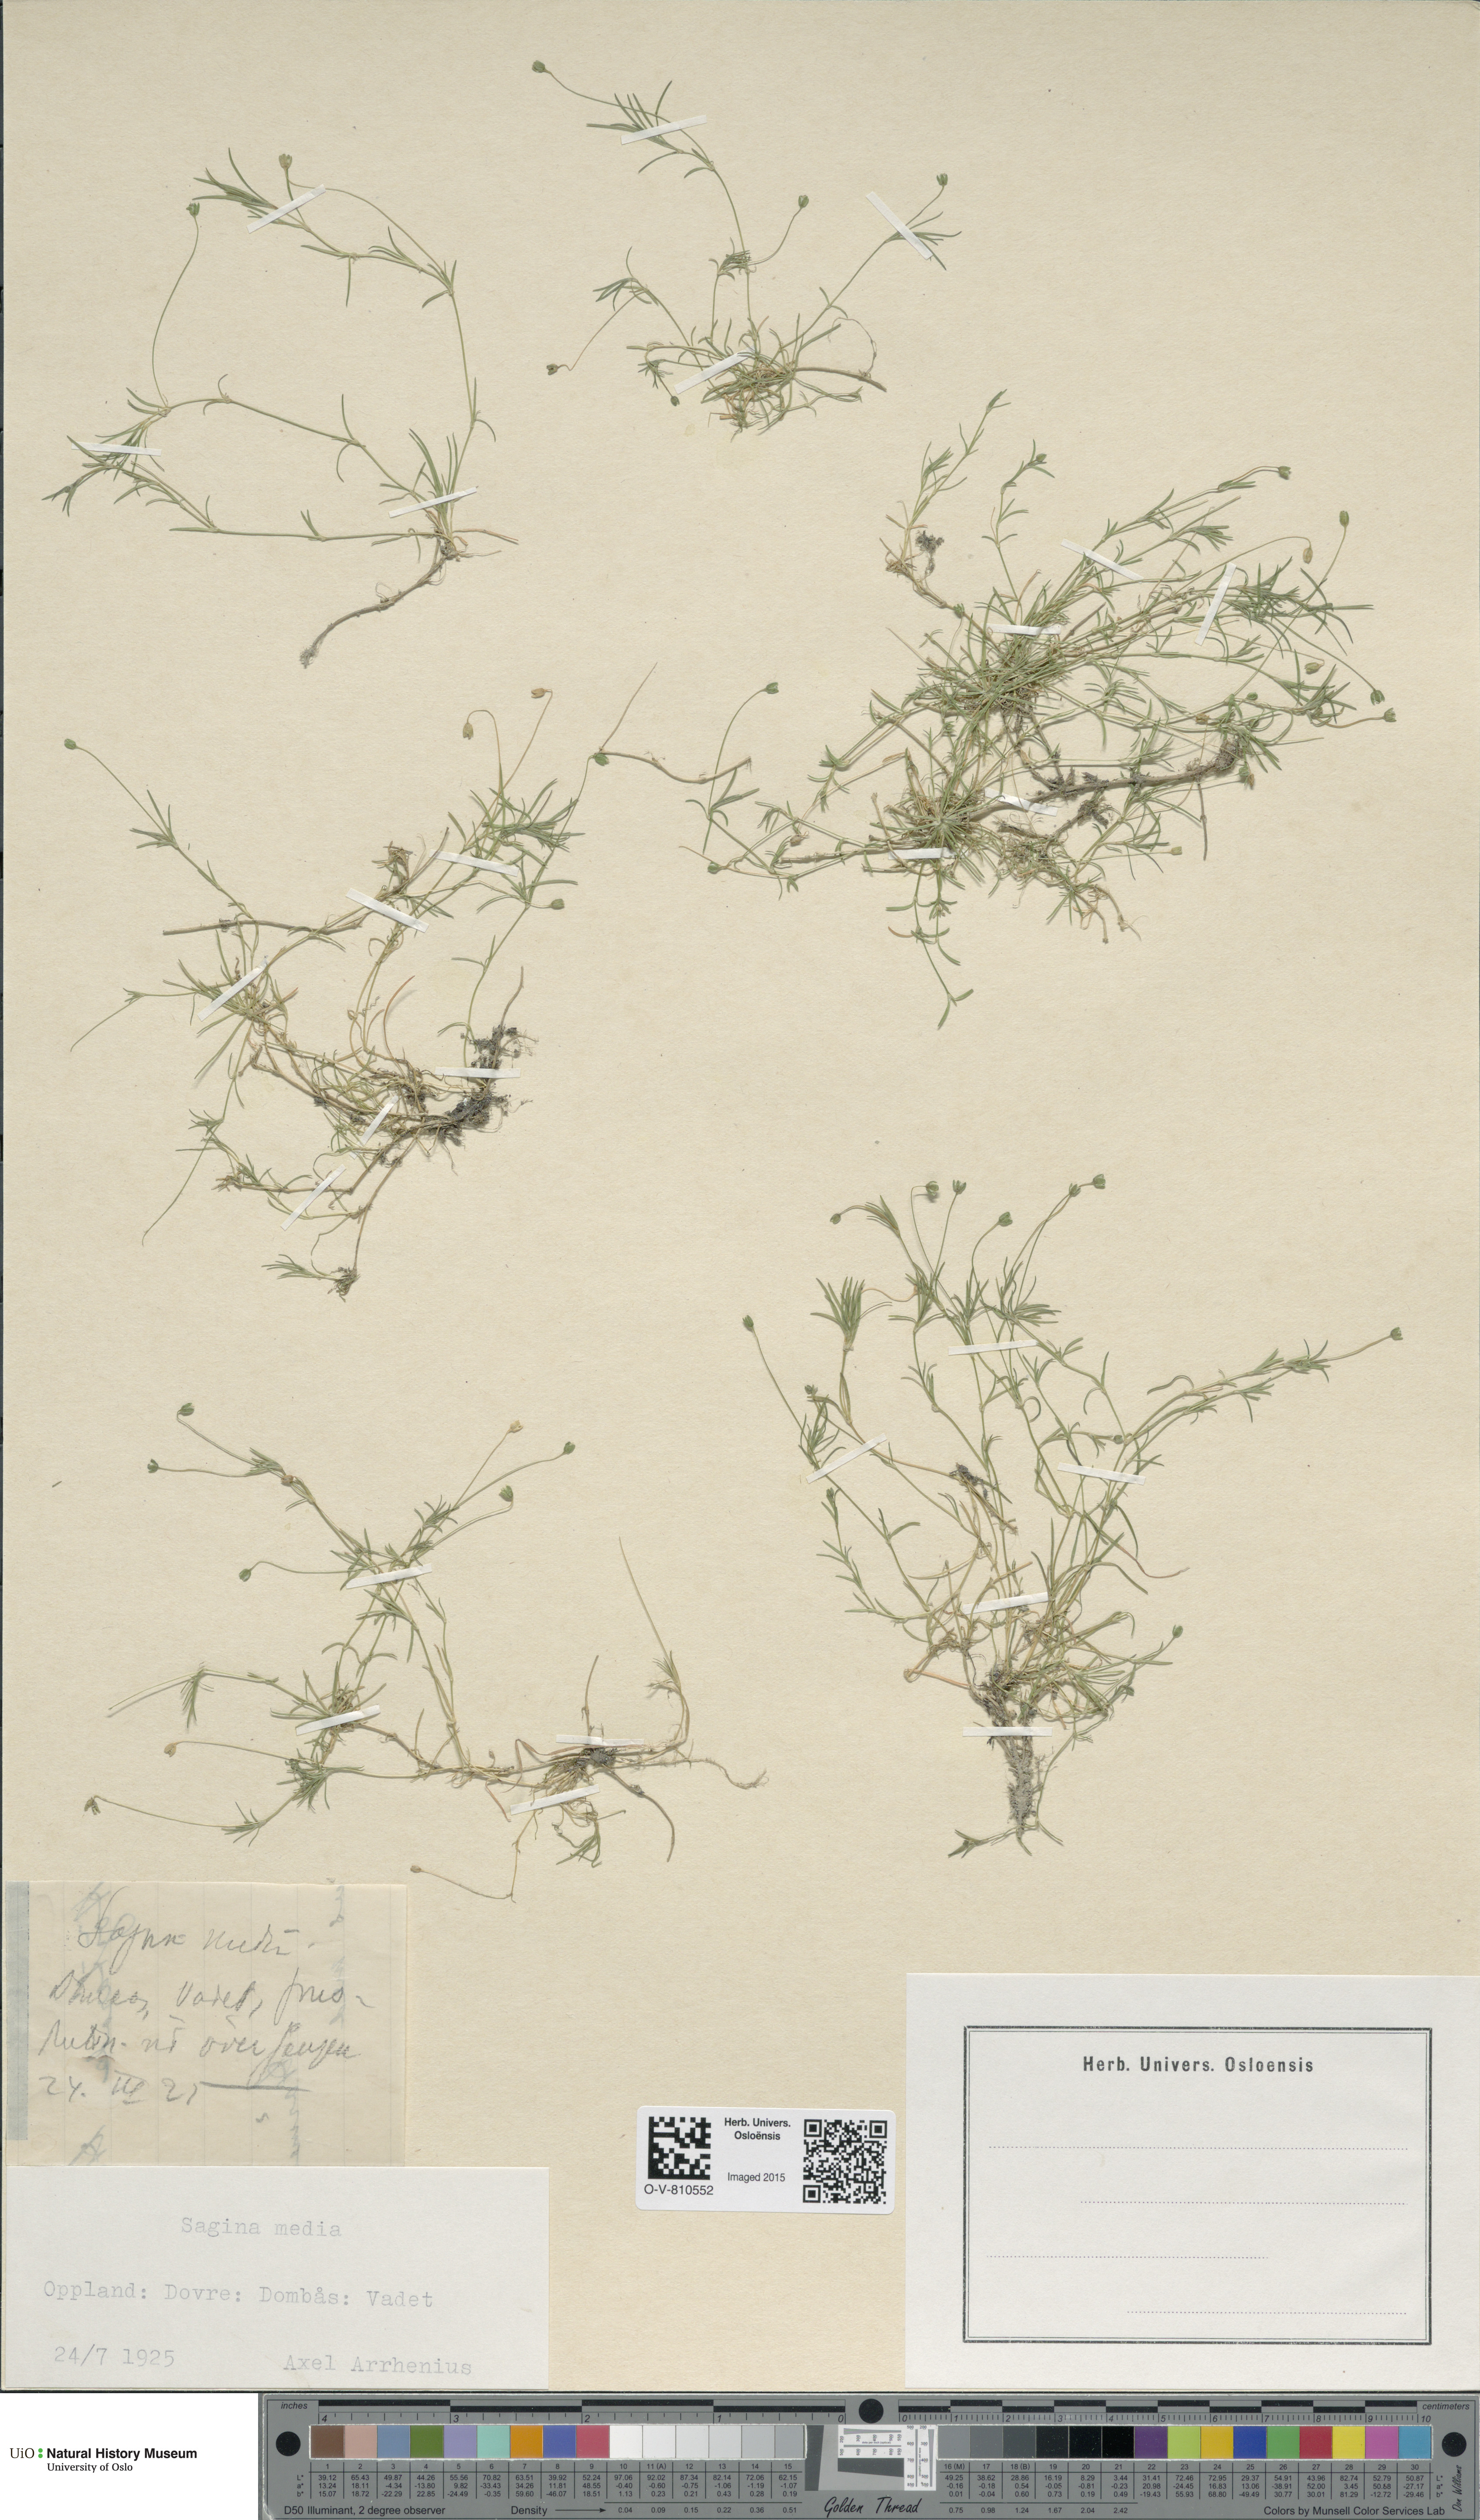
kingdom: Plantae
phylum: Tracheophyta
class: Magnoliopsida
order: Caryophyllales
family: Caryophyllaceae
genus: Sagina
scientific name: Sagina media
